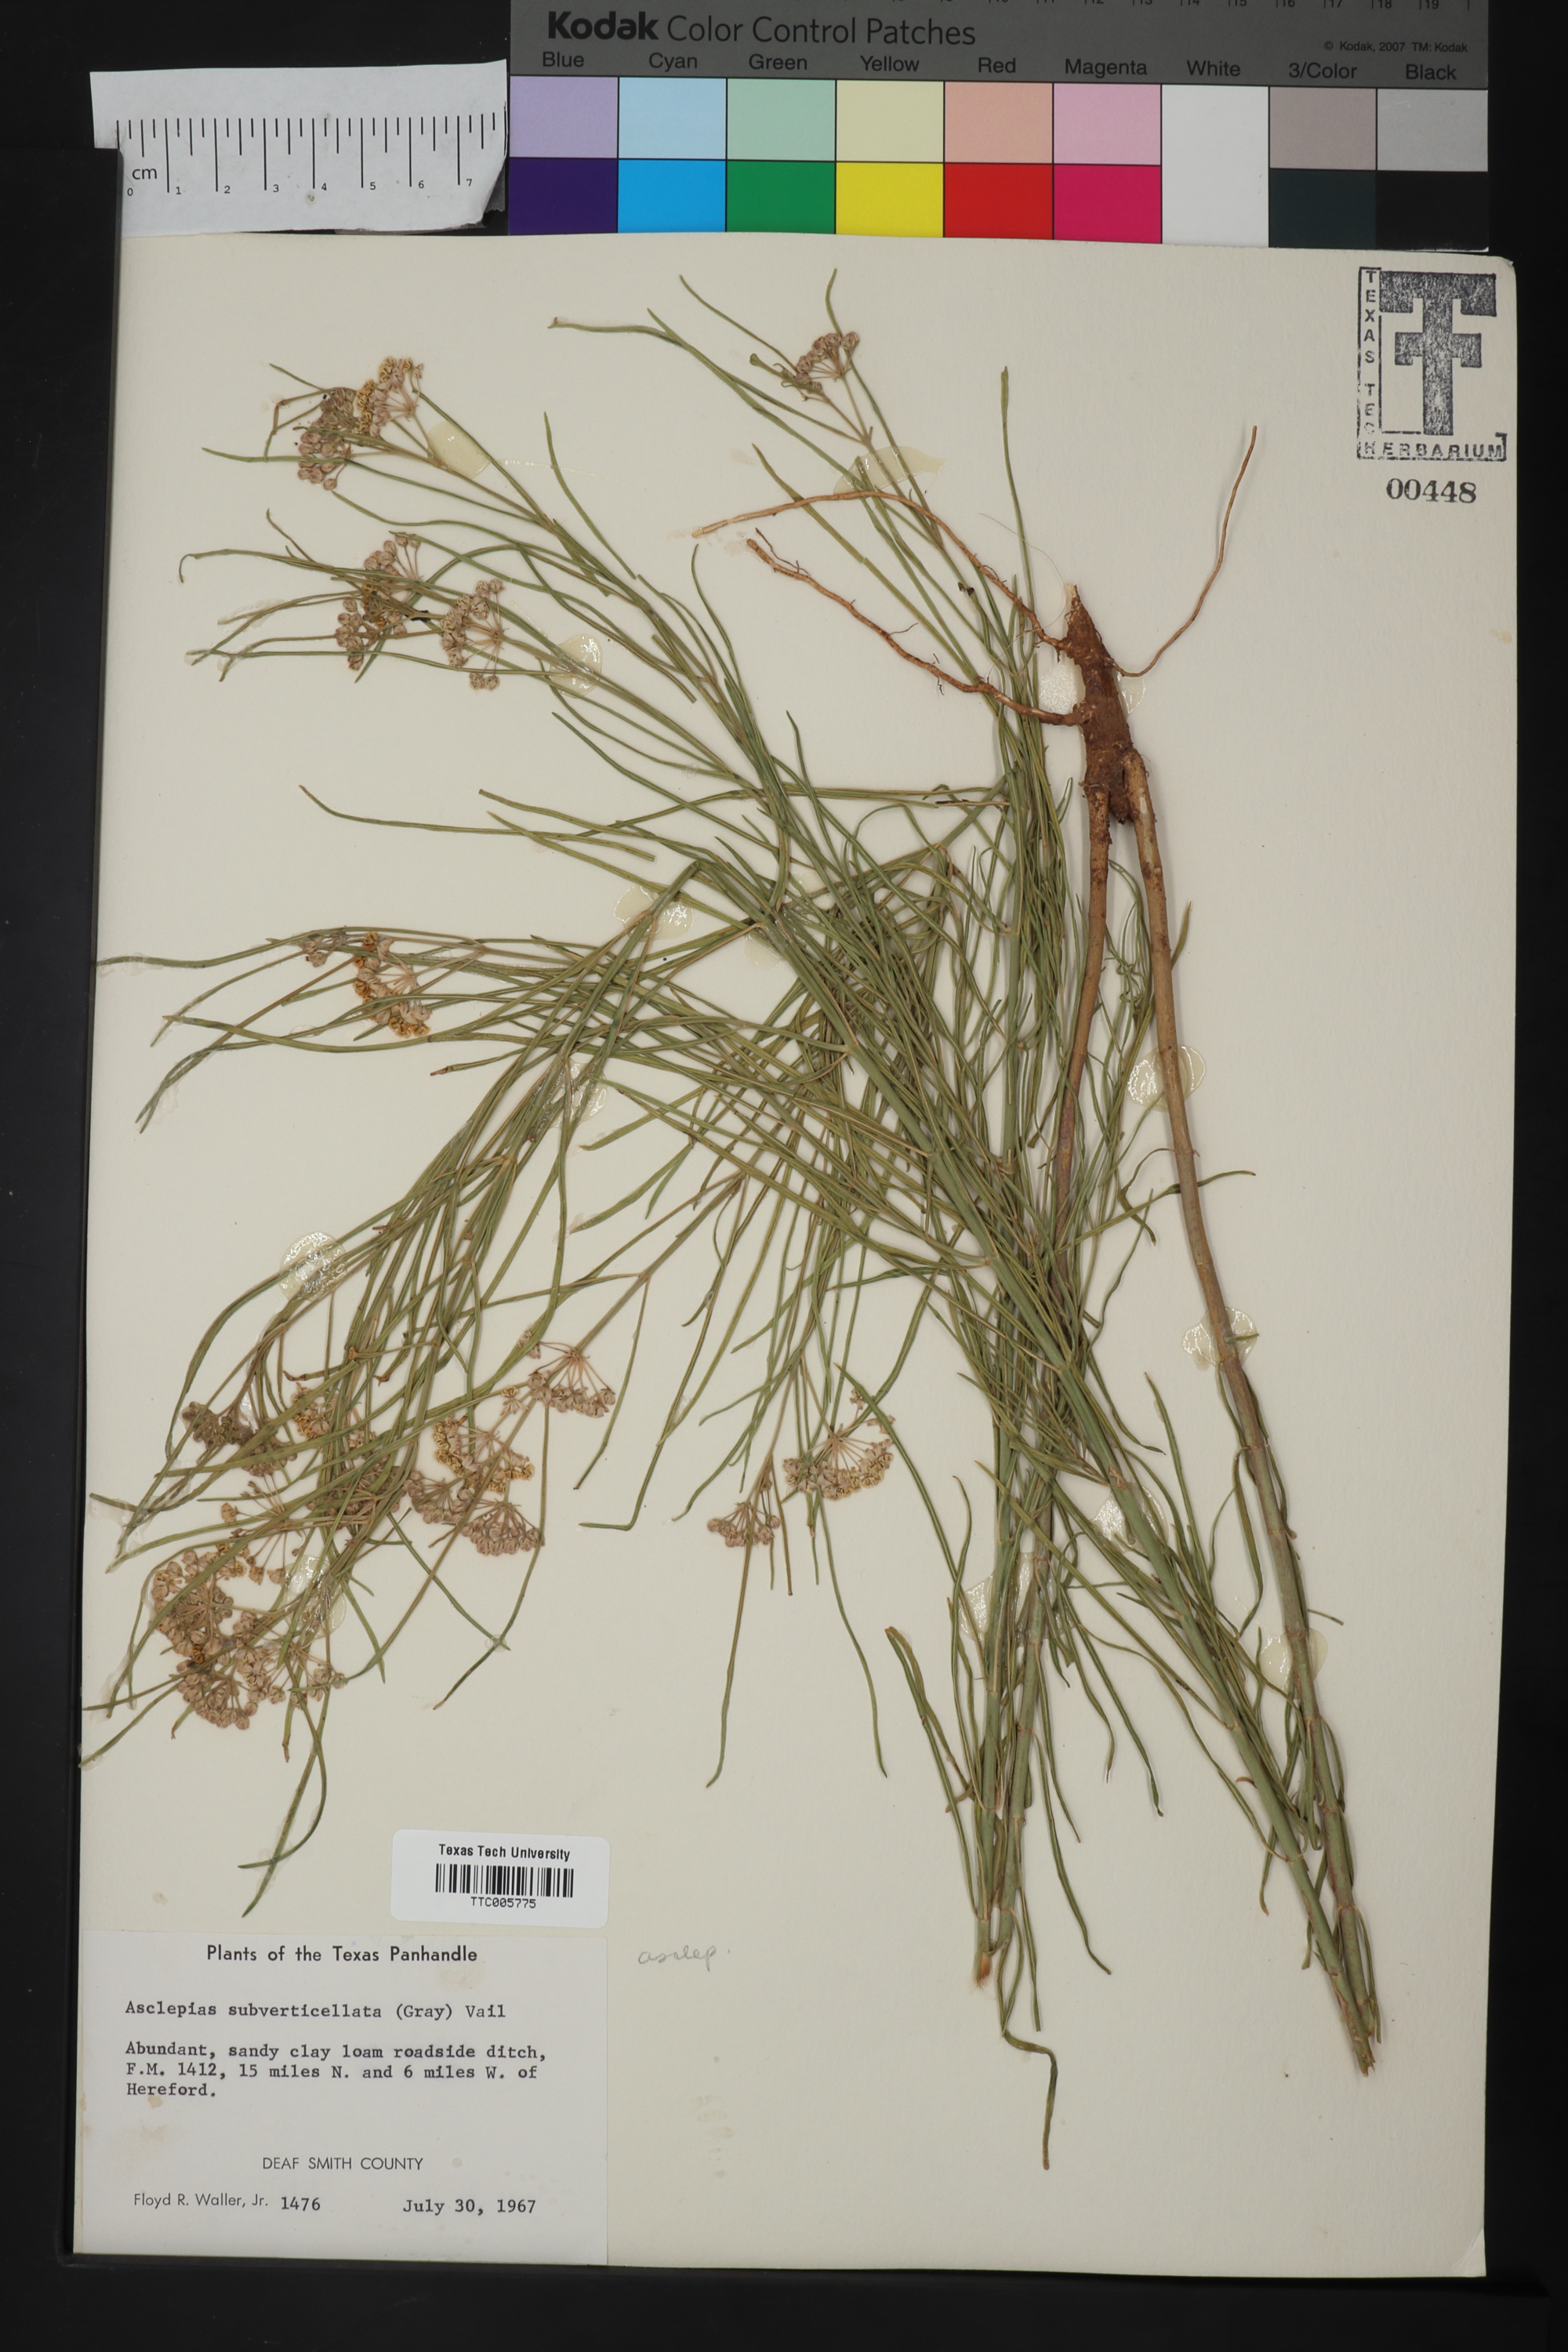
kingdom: Plantae
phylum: Tracheophyta
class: Magnoliopsida
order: Gentianales
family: Apocynaceae
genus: Asclepias
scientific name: Asclepias subverticillata
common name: Horsetail milkweed
